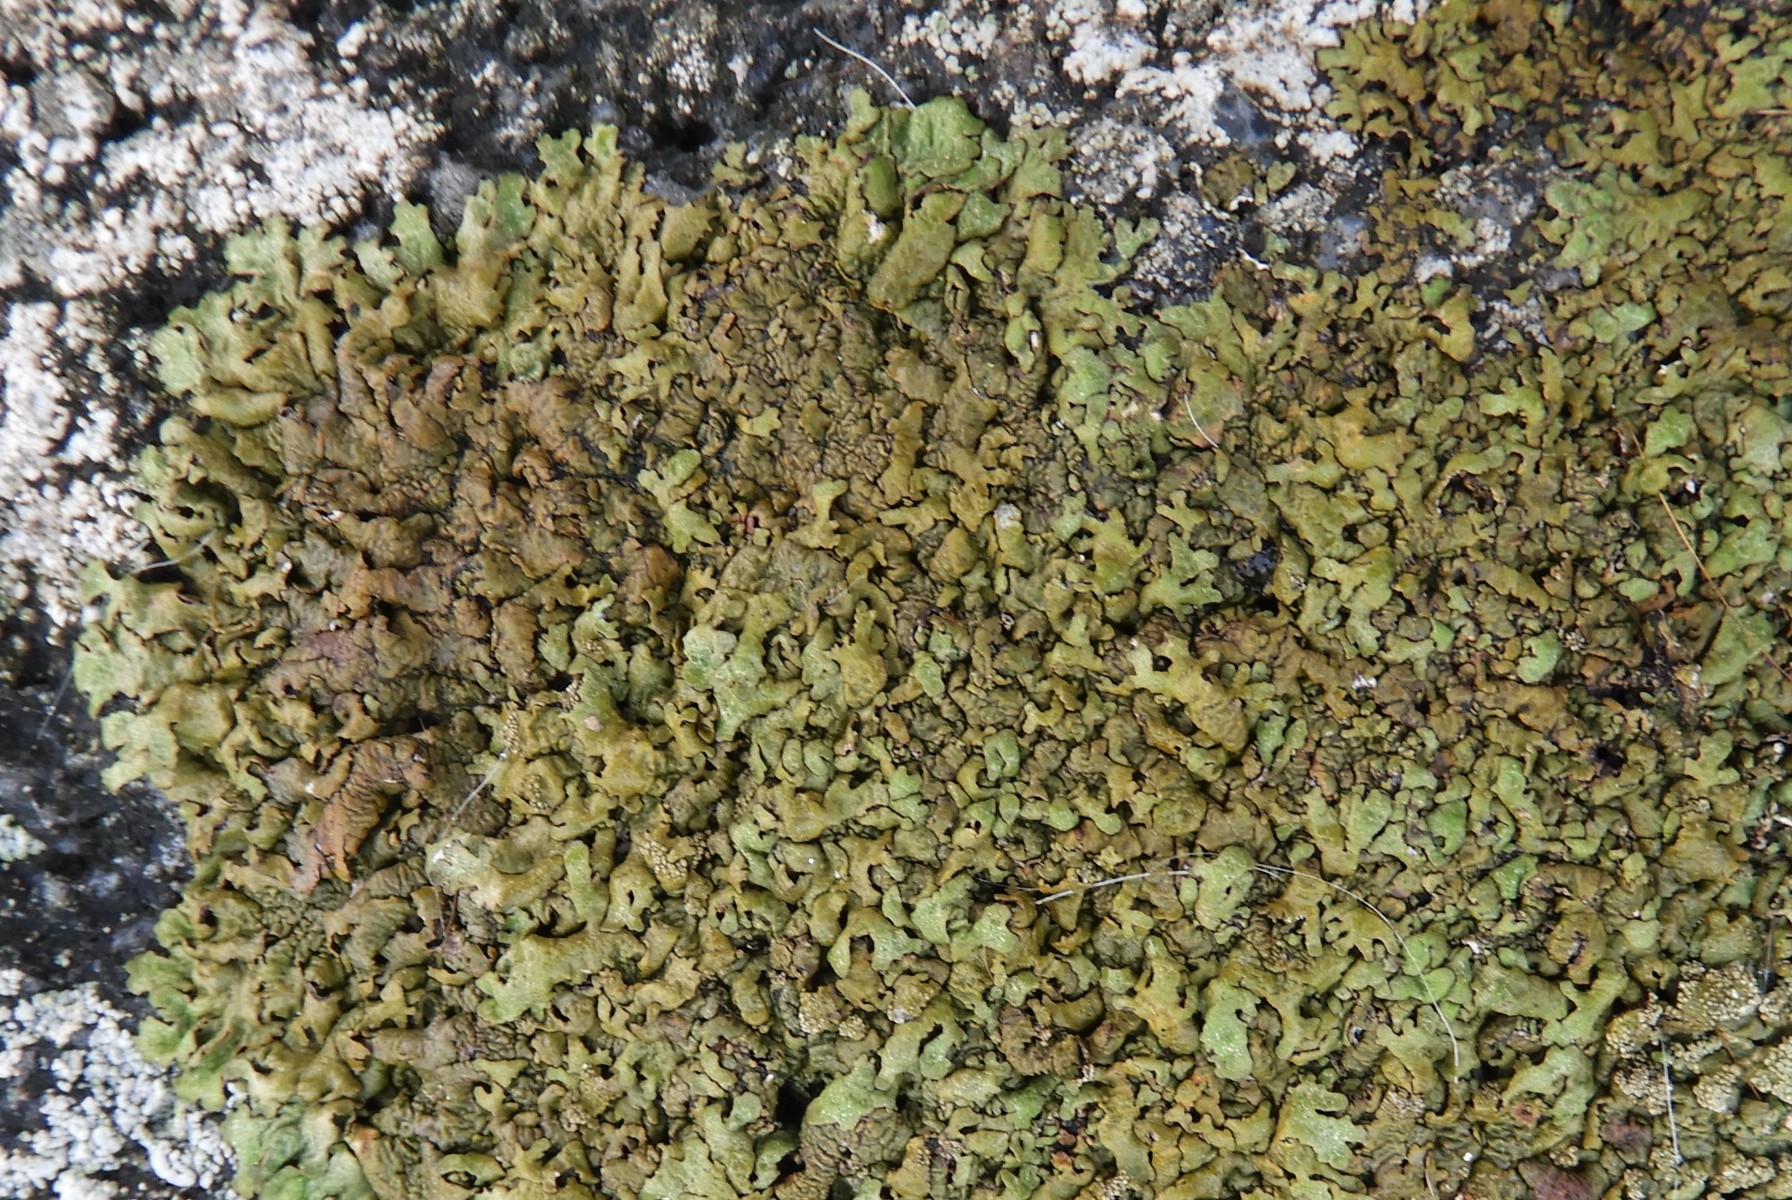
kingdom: Fungi
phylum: Ascomycota
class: Lecanoromycetes
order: Lecanorales
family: Parmeliaceae
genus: Xanthoparmelia
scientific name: Xanthoparmelia loxodes
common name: knudret skållav
